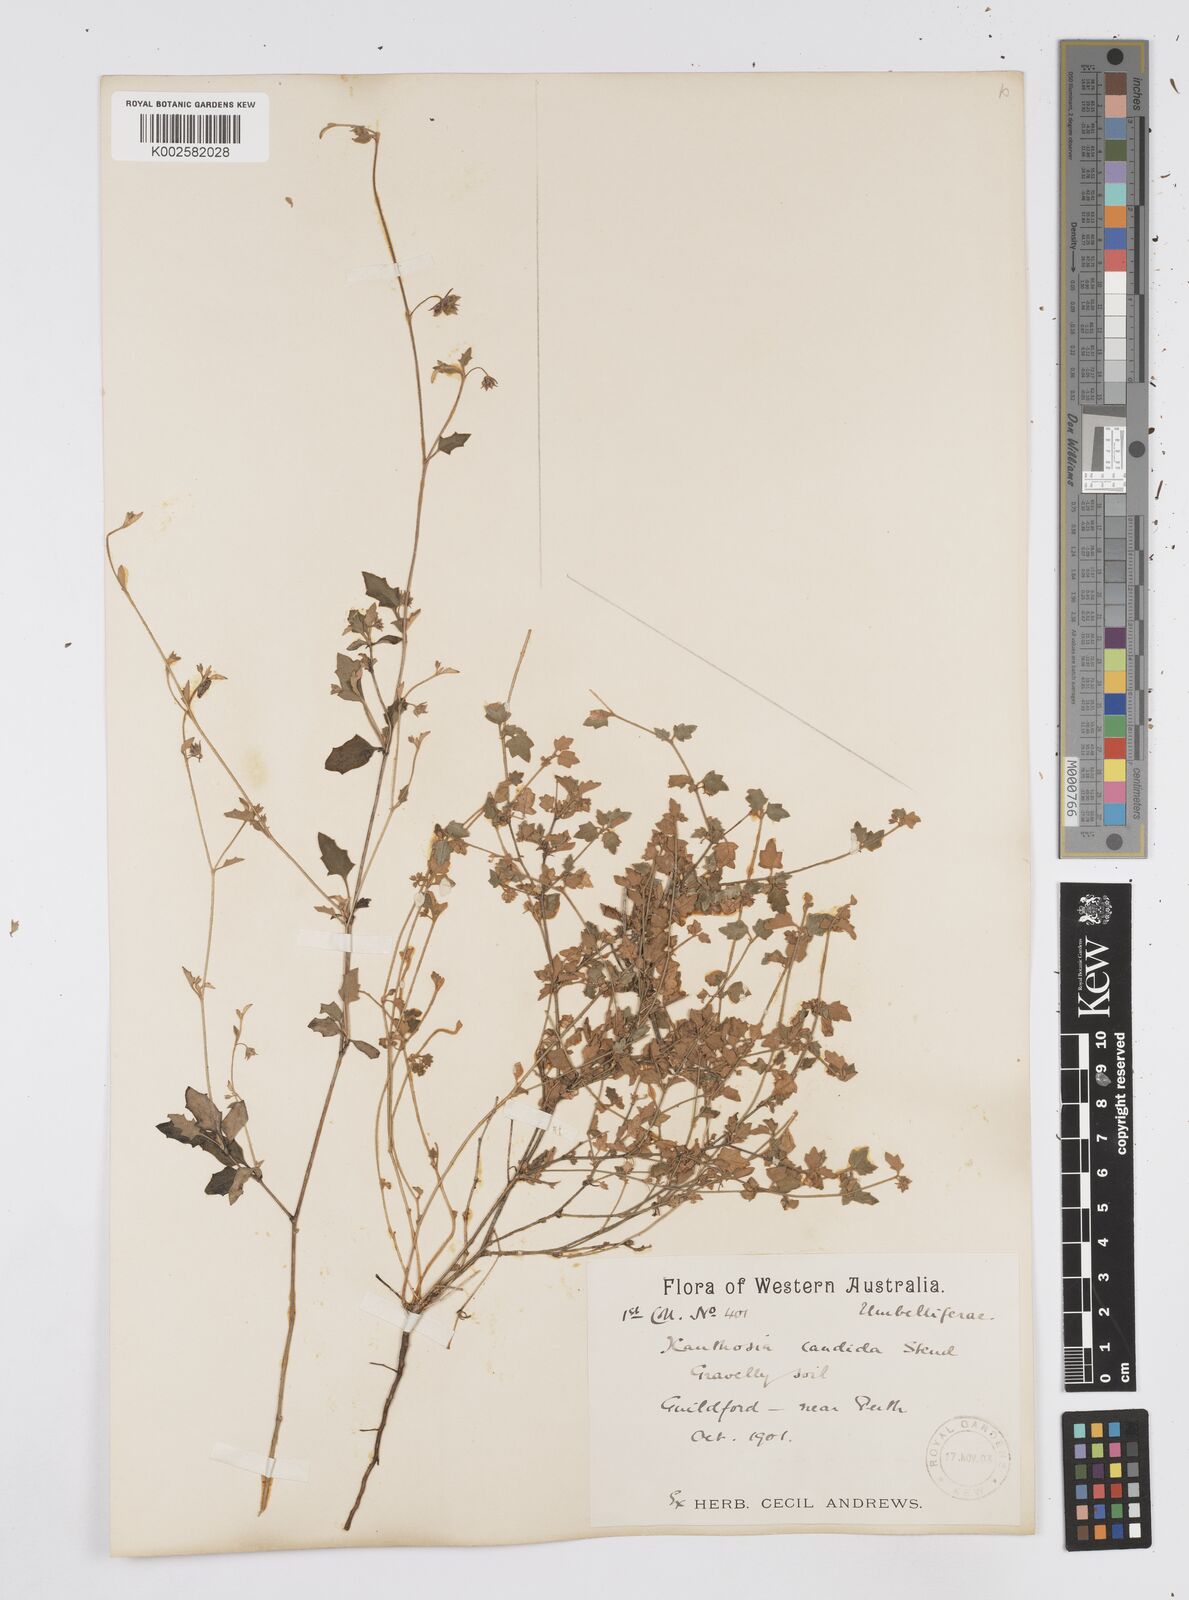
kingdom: Plantae
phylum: Tracheophyta
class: Magnoliopsida
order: Apiales
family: Apiaceae
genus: Xanthosia
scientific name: Xanthosia candida
